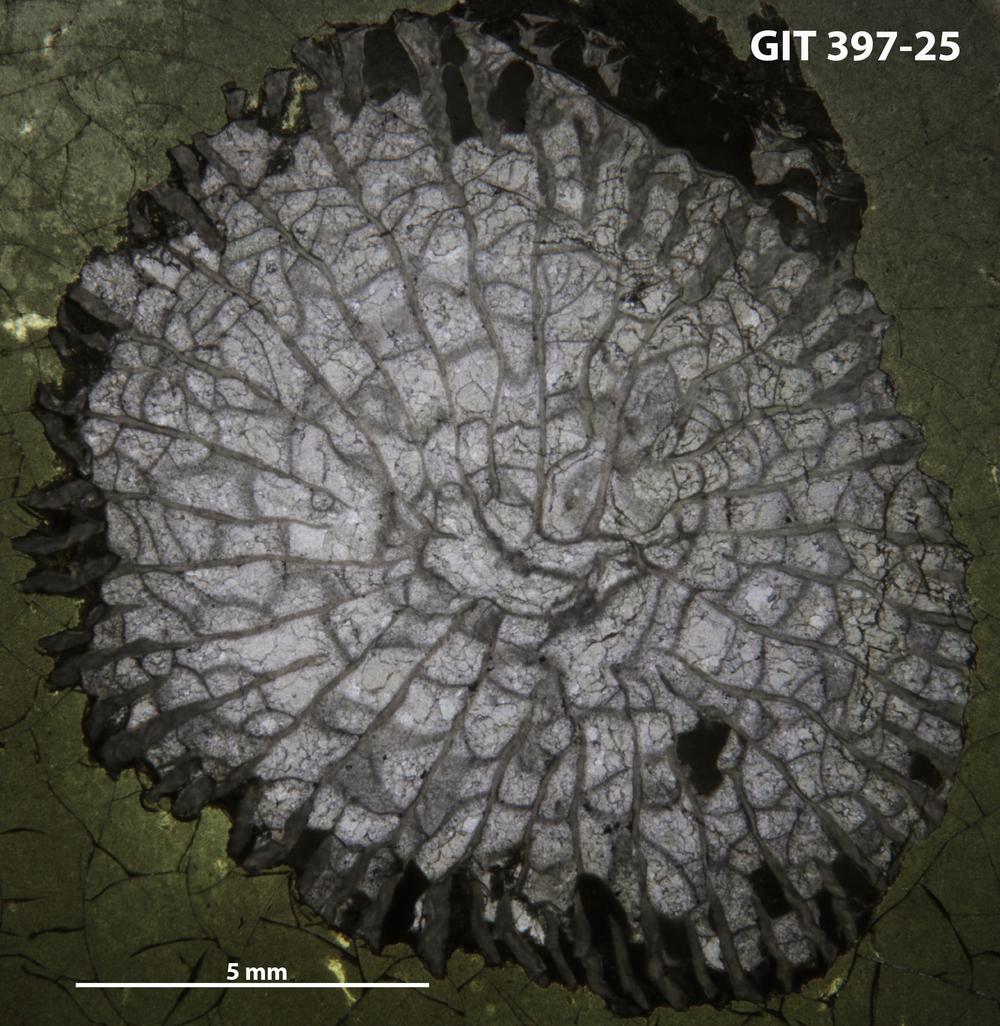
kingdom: Animalia
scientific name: Animalia
